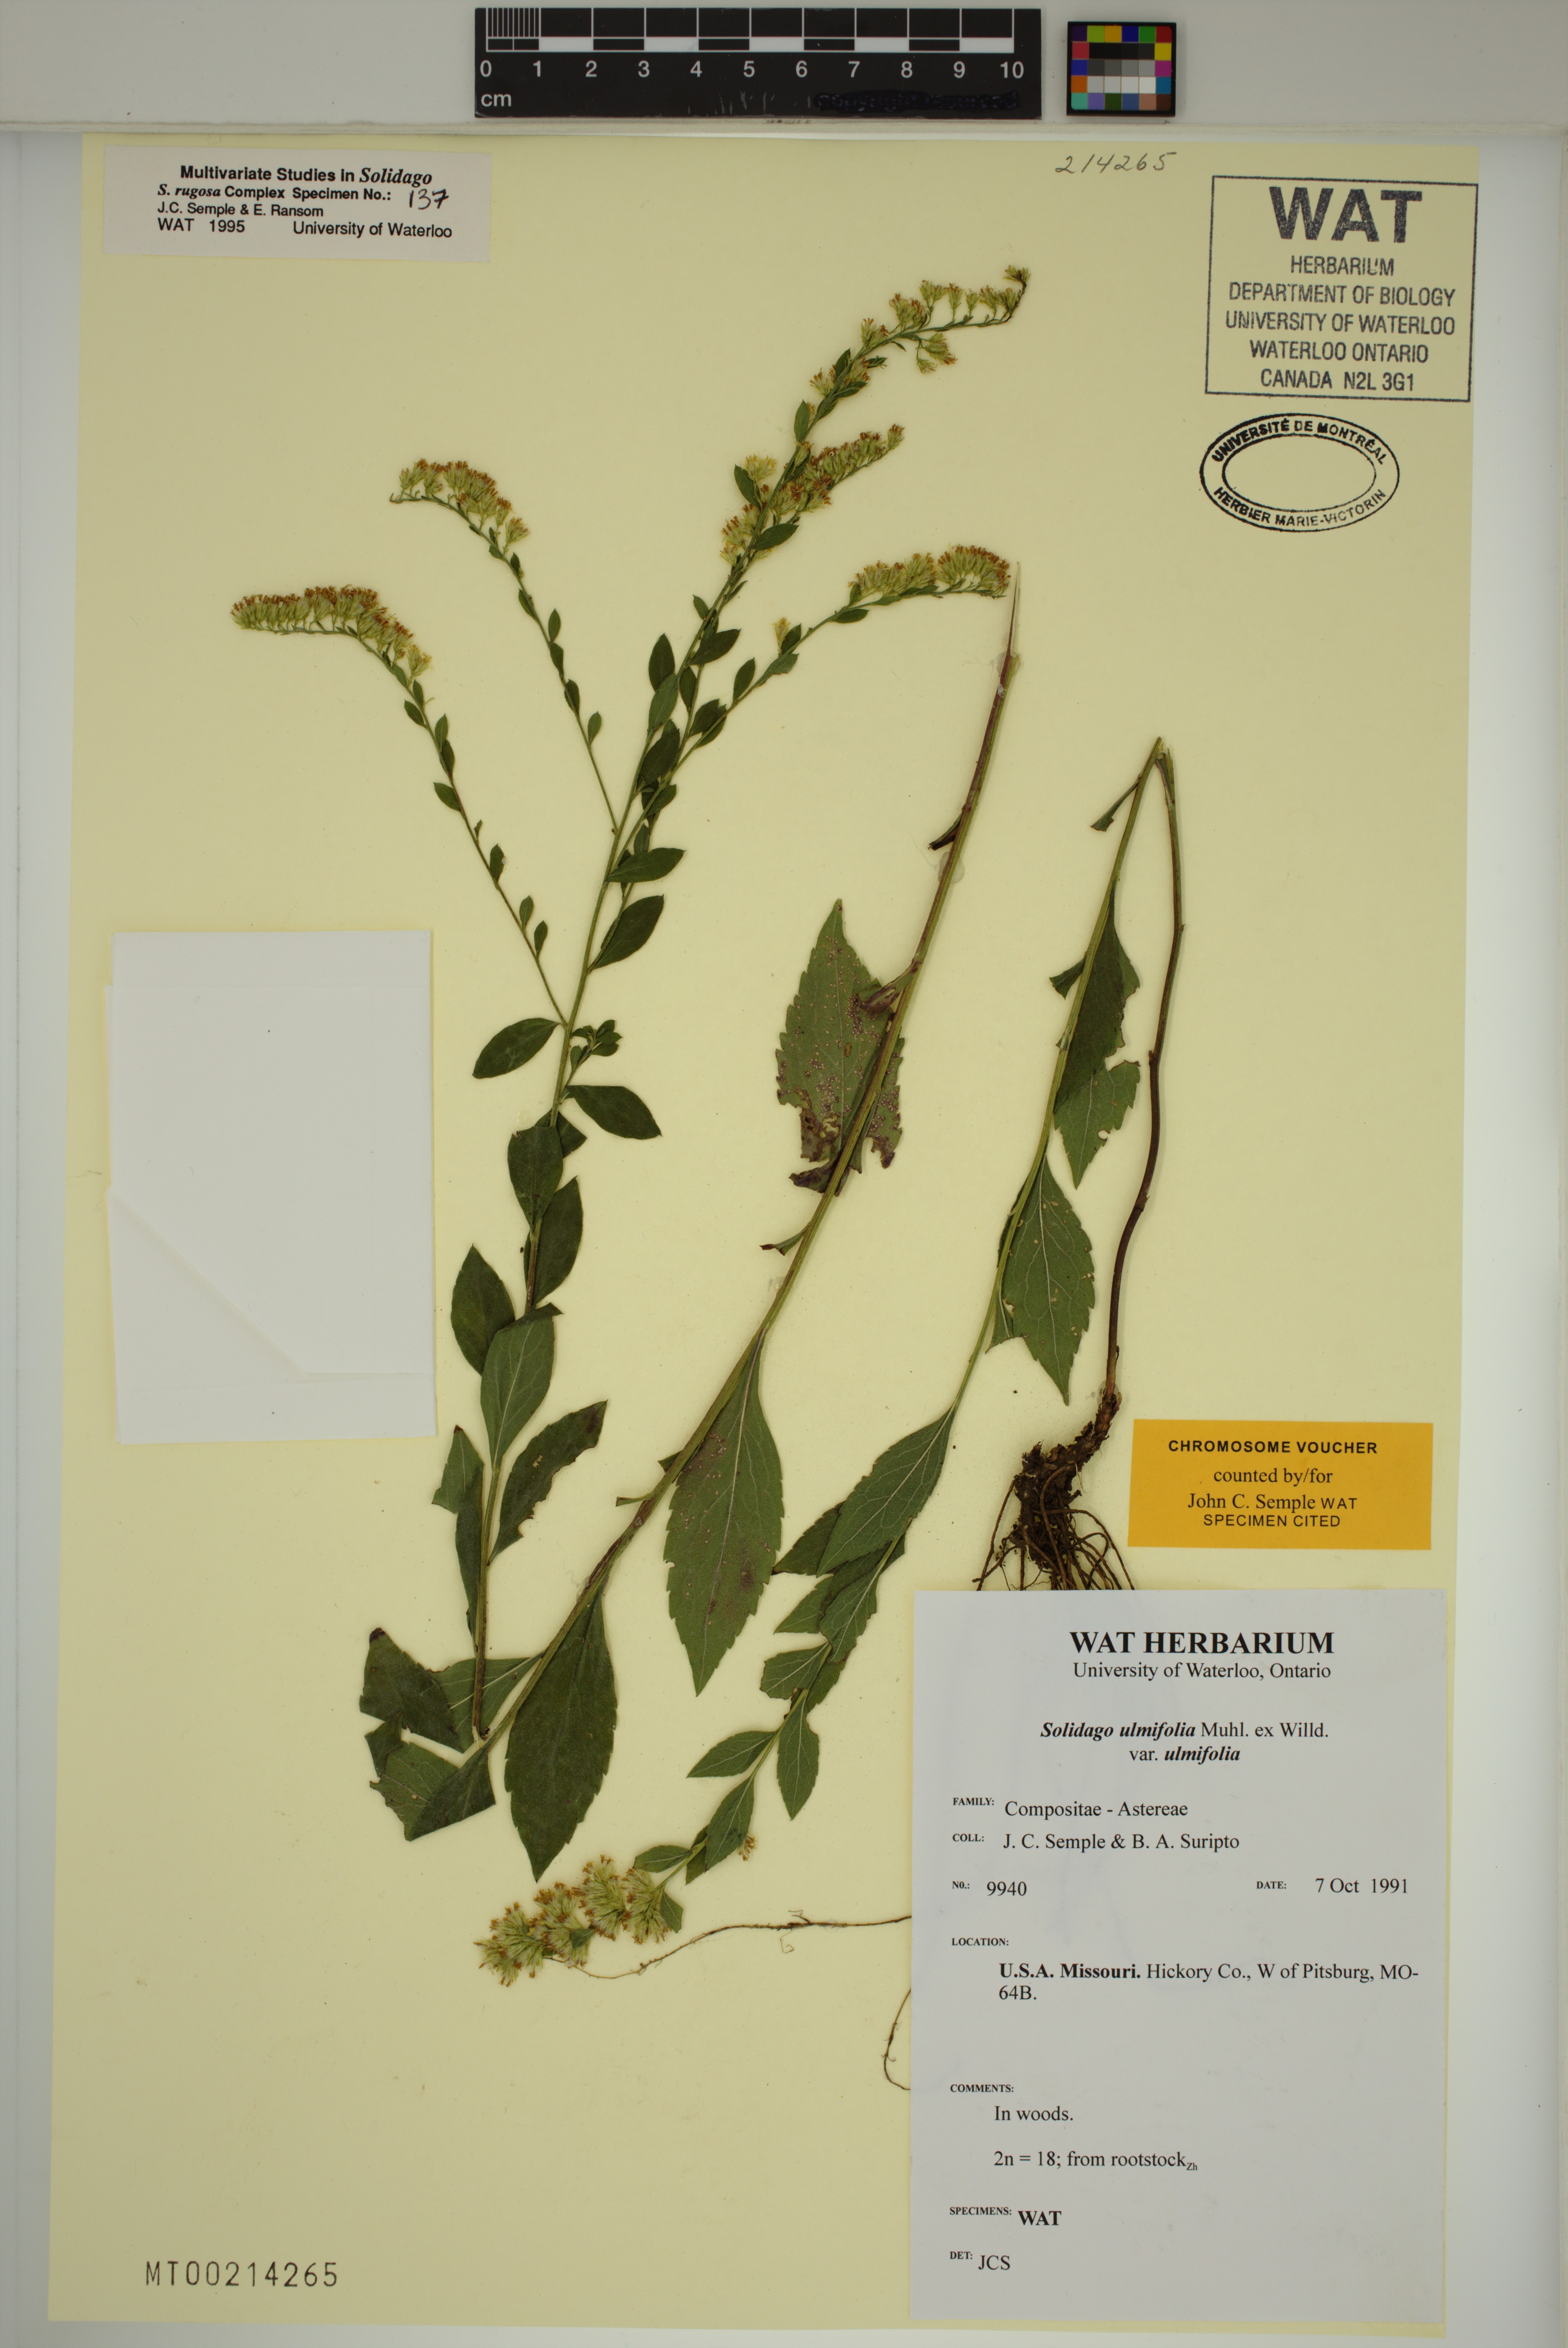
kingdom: Plantae
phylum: Tracheophyta
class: Magnoliopsida
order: Asterales
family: Asteraceae
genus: Solidago
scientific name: Solidago ulmifolia
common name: Elm-leaf goldenrod
